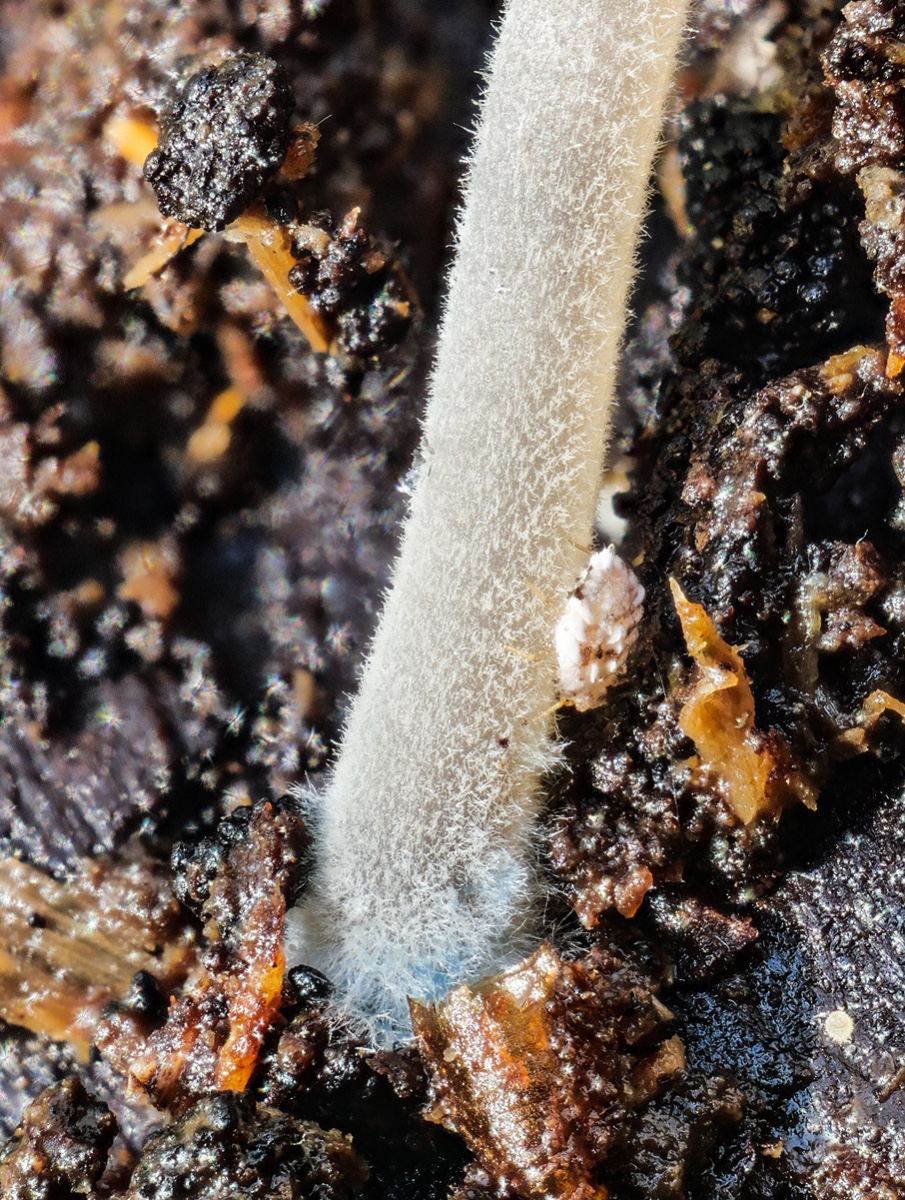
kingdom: Fungi
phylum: Basidiomycota
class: Agaricomycetes
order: Agaricales
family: Mycenaceae
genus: Mycena
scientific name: Mycena amicta
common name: iris-huesvamp
